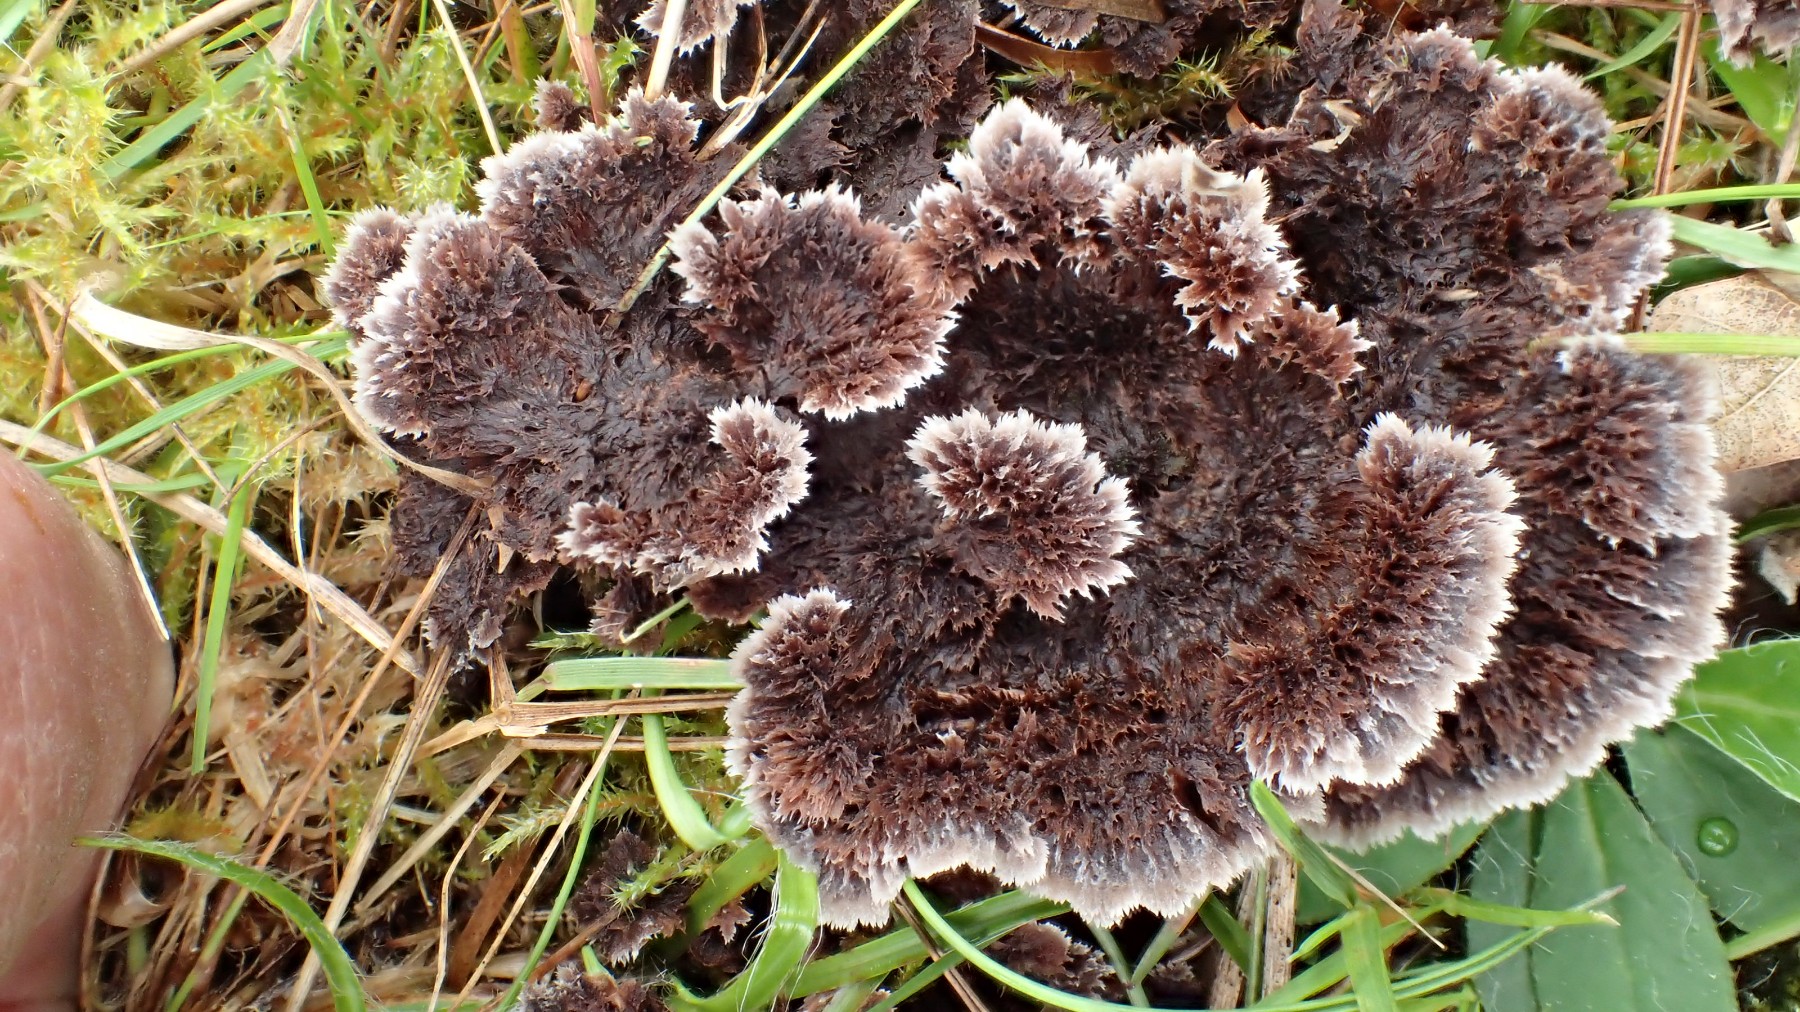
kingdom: Fungi
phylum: Basidiomycota
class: Agaricomycetes
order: Thelephorales
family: Thelephoraceae
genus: Thelephora
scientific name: Thelephora terrestris
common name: fliget frynsesvamp
